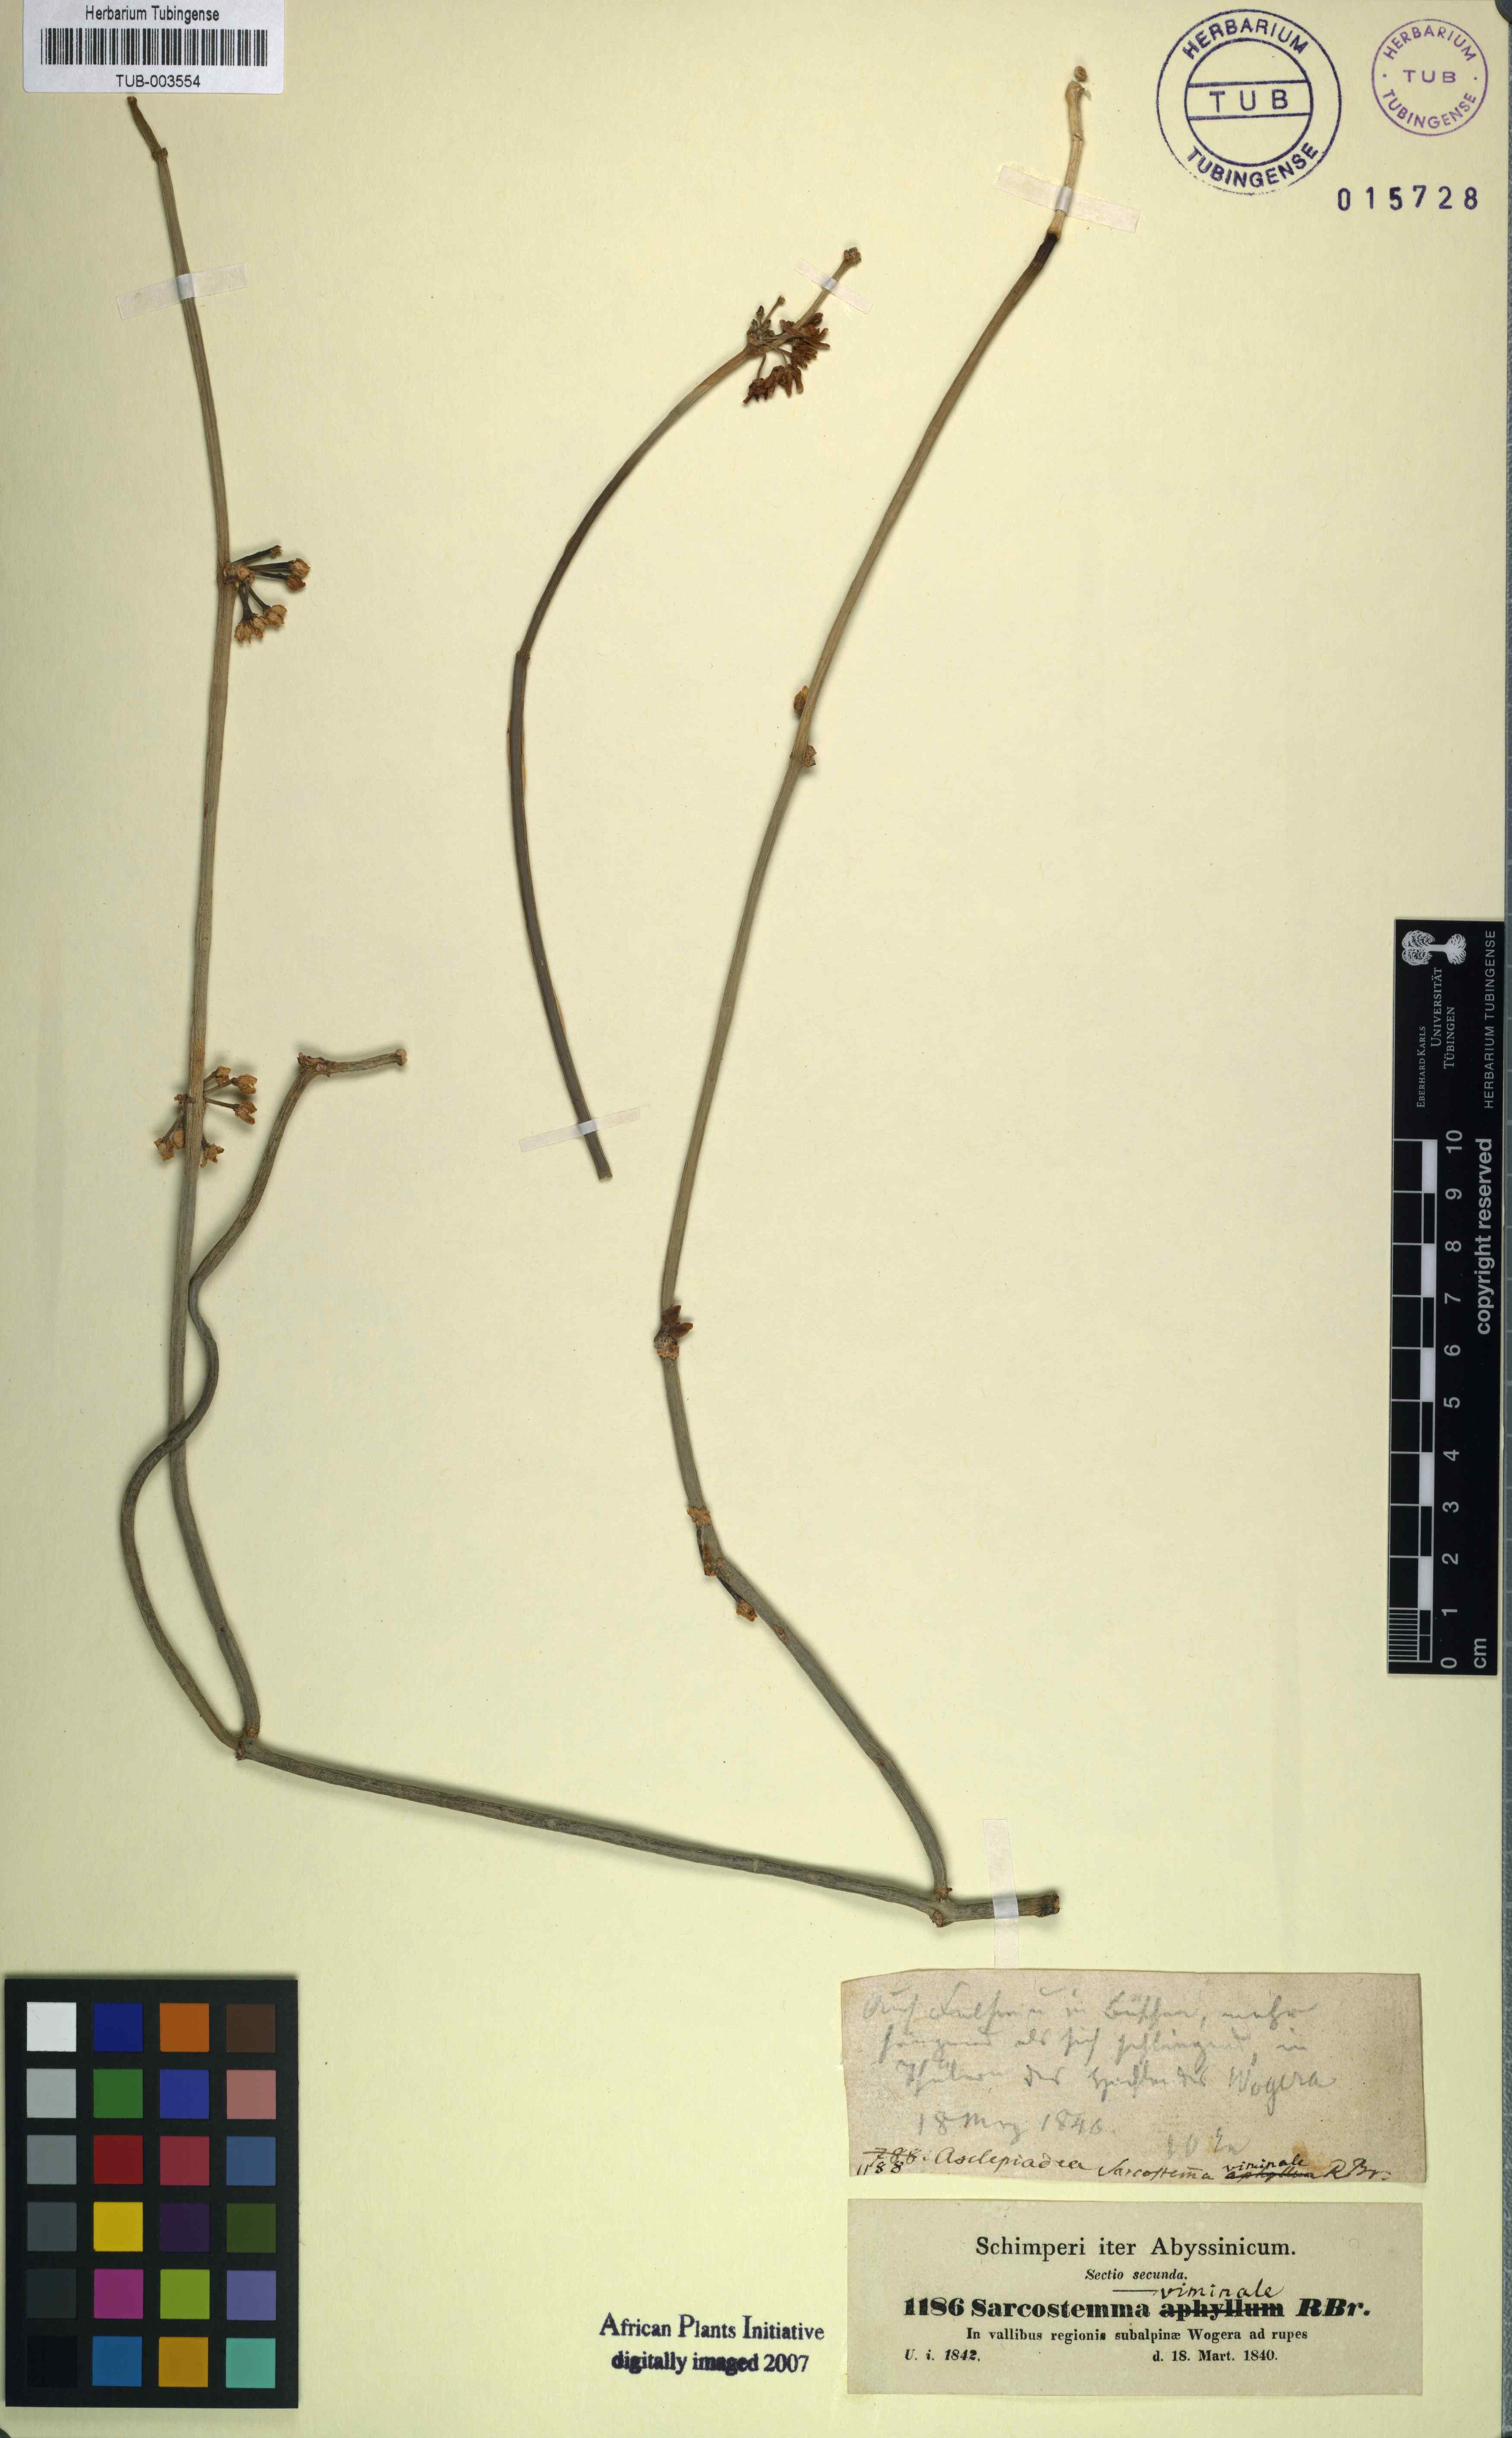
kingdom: Plantae
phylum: Tracheophyta
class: Magnoliopsida
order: Gentianales
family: Apocynaceae
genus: Cynanchum
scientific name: Cynanchum viminale
